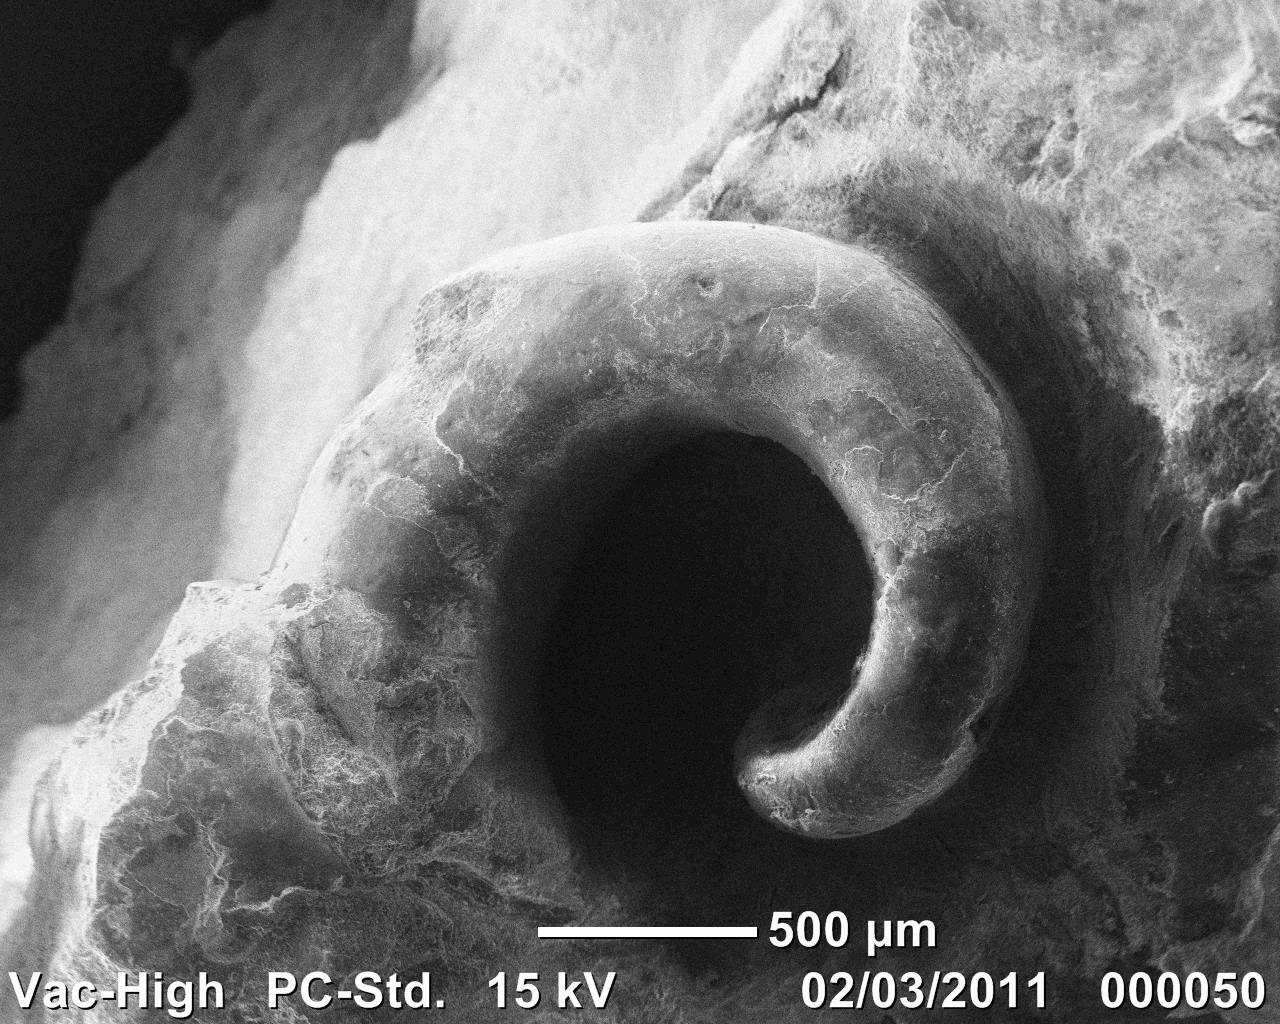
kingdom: Animalia
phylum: Mollusca
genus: Simoniceras
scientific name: Simoniceras
